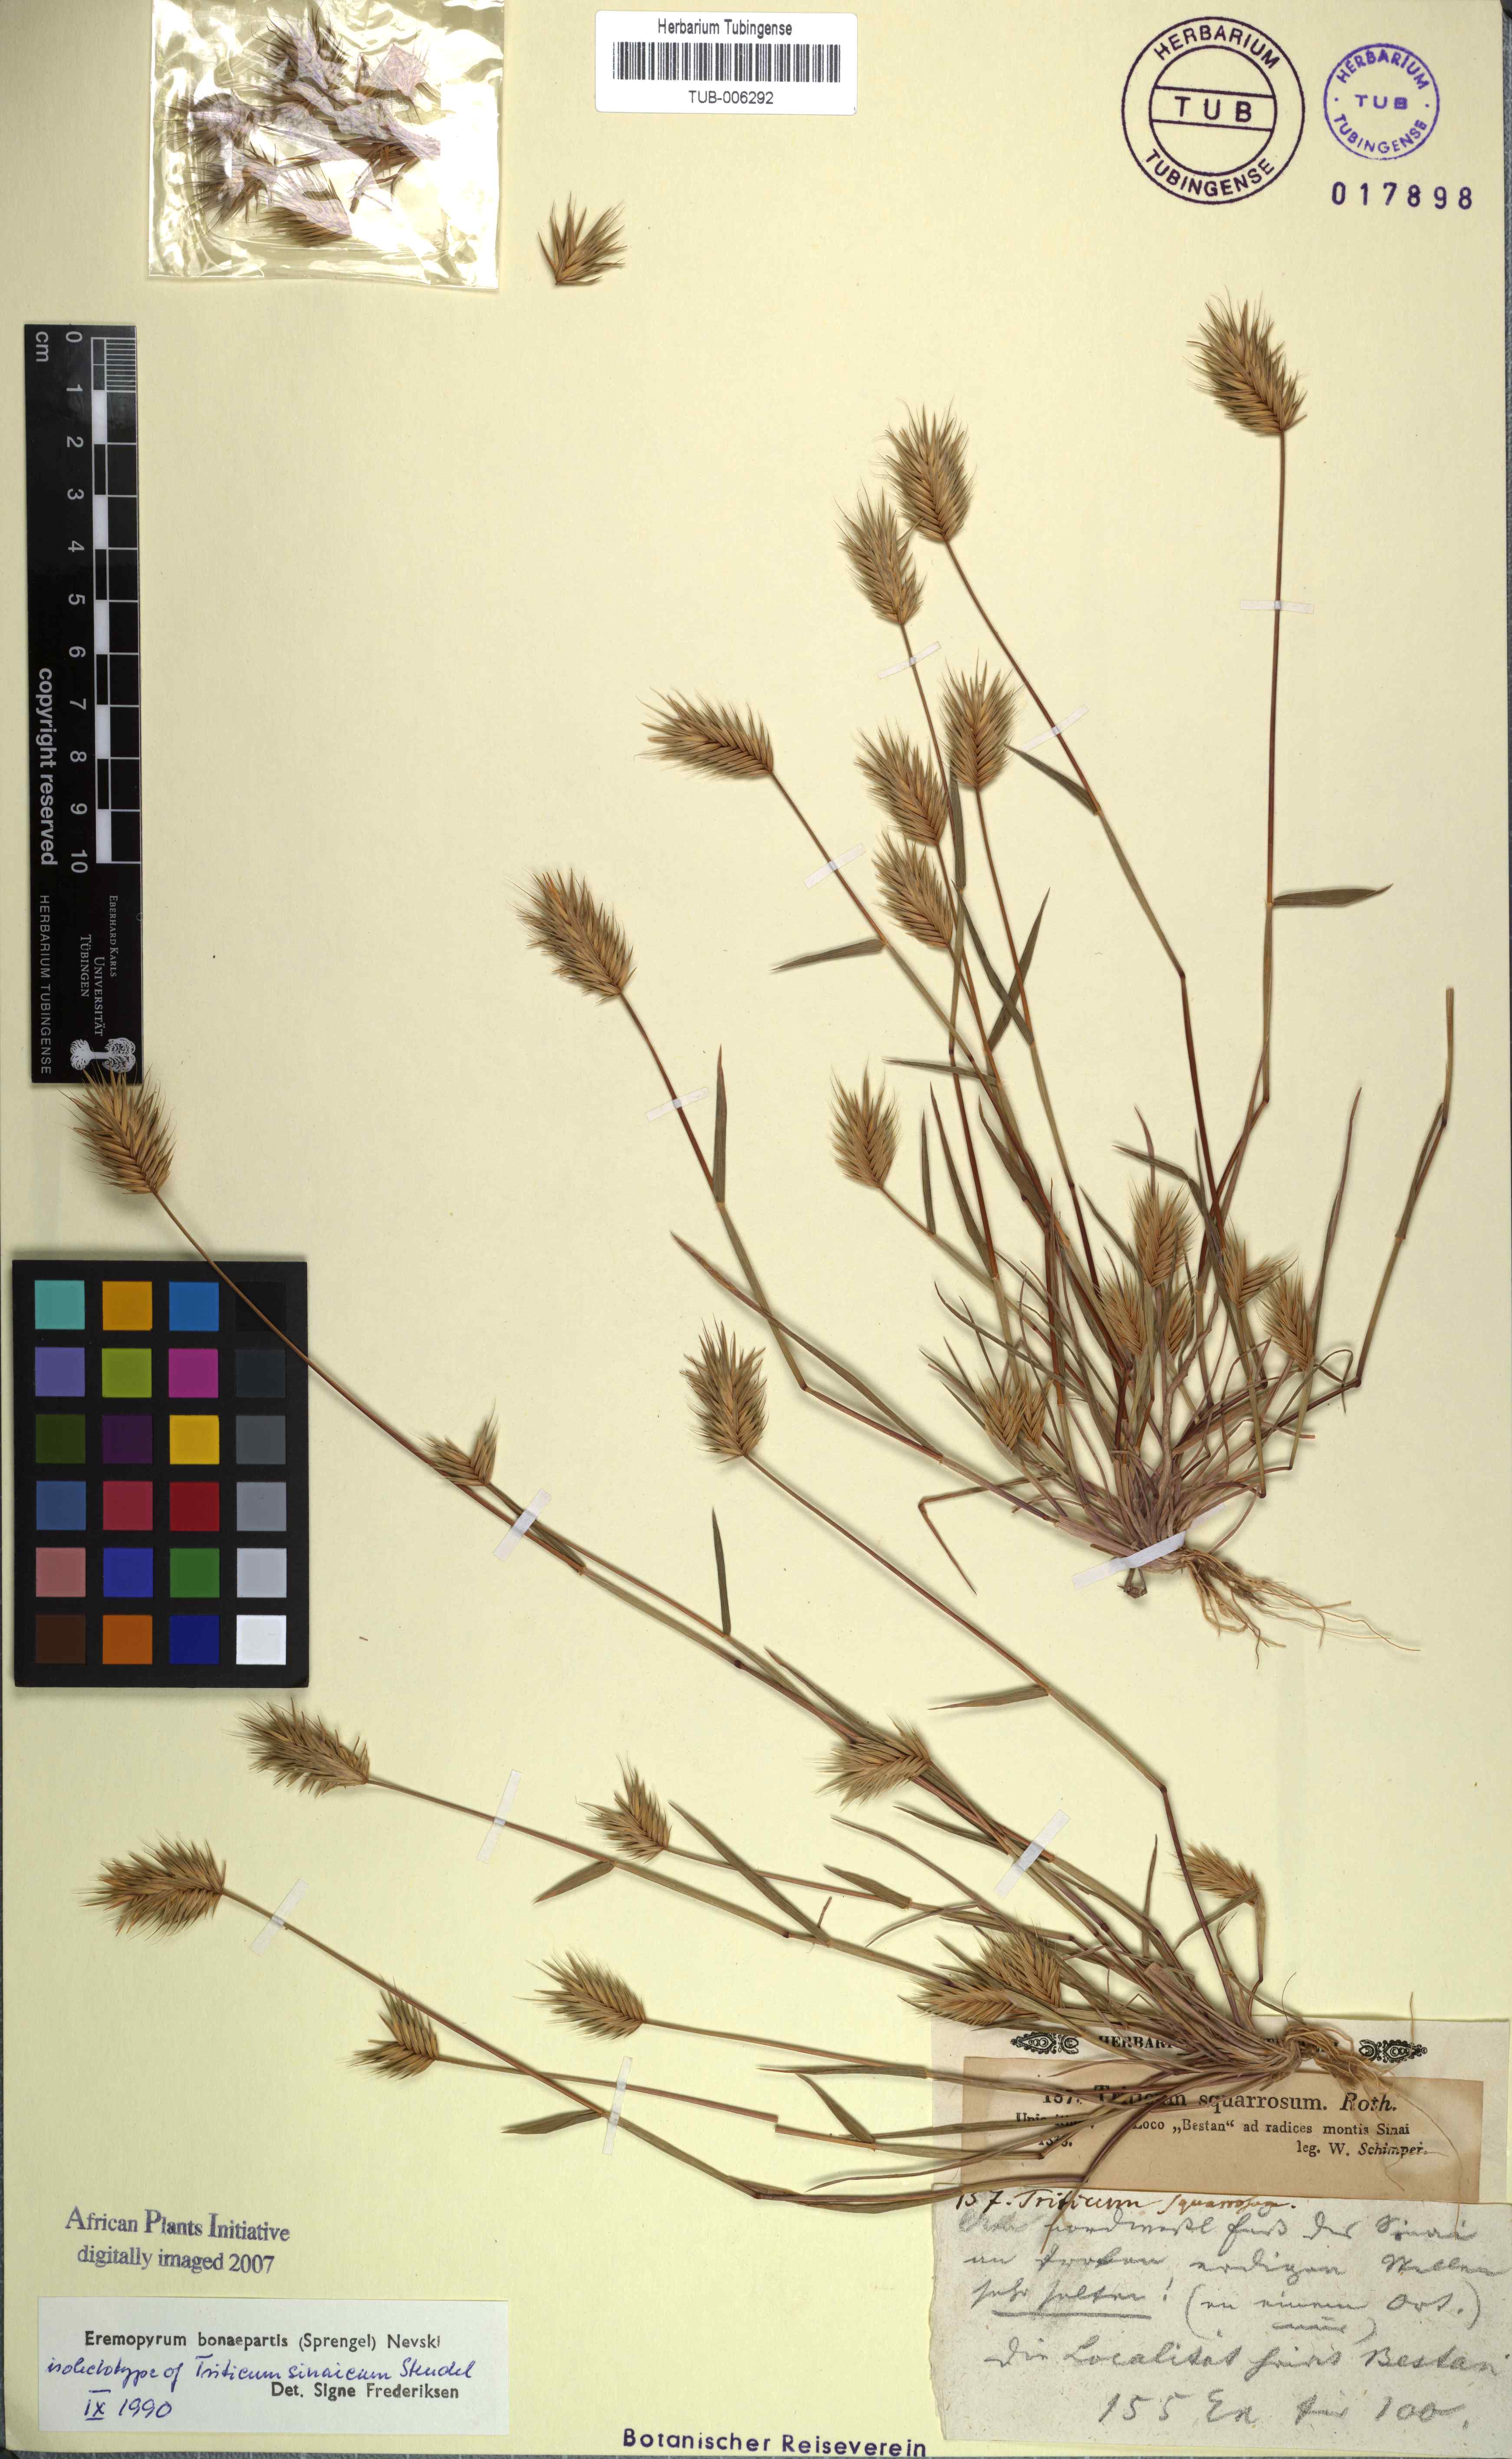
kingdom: Plantae
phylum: Tracheophyta
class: Liliopsida
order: Poales
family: Poaceae
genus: Eremopyrum
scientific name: Eremopyrum bonaepartis
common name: Tapertip false wheatgrass
